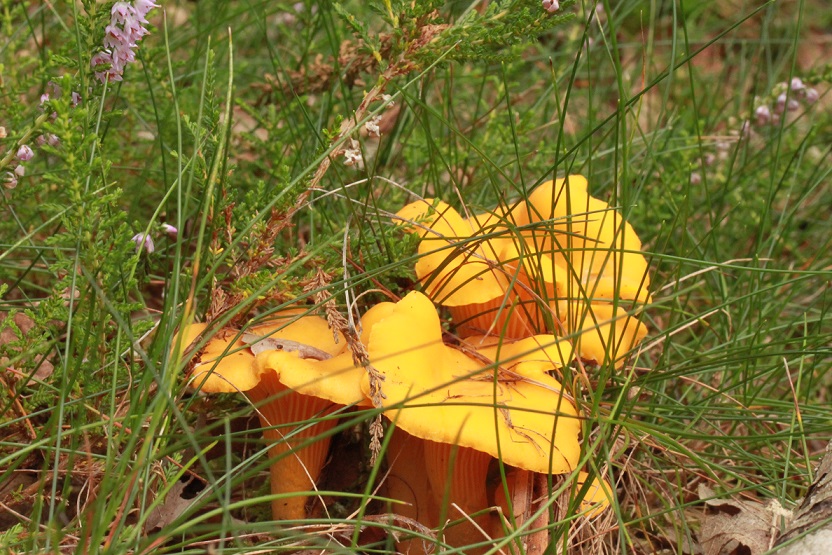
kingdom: Fungi
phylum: Basidiomycota
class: Agaricomycetes
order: Cantharellales
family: Hydnaceae
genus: Cantharellus
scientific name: Cantharellus cibarius
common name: almindelig kantarel
